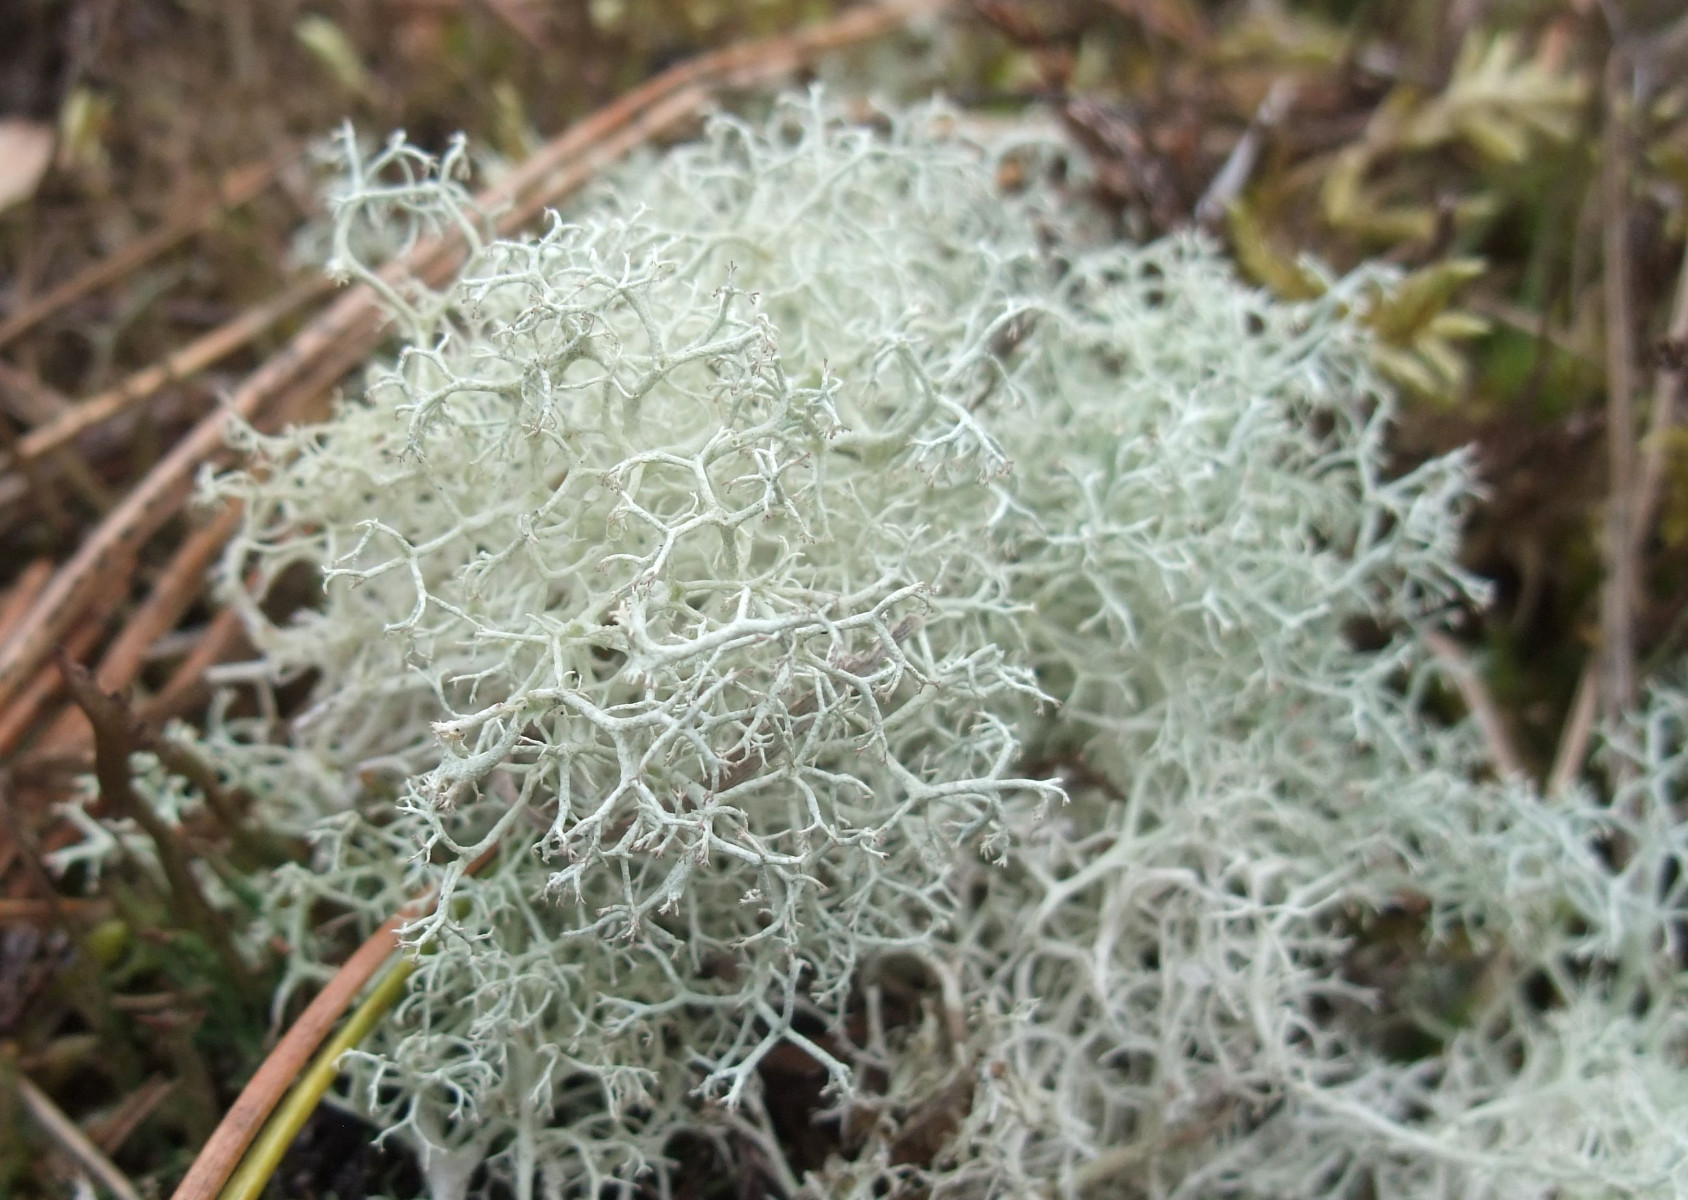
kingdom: Fungi
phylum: Ascomycota
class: Lecanoromycetes
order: Lecanorales
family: Cladoniaceae
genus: Cladonia
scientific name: Cladonia portentosa
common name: hede-rensdyrlav
